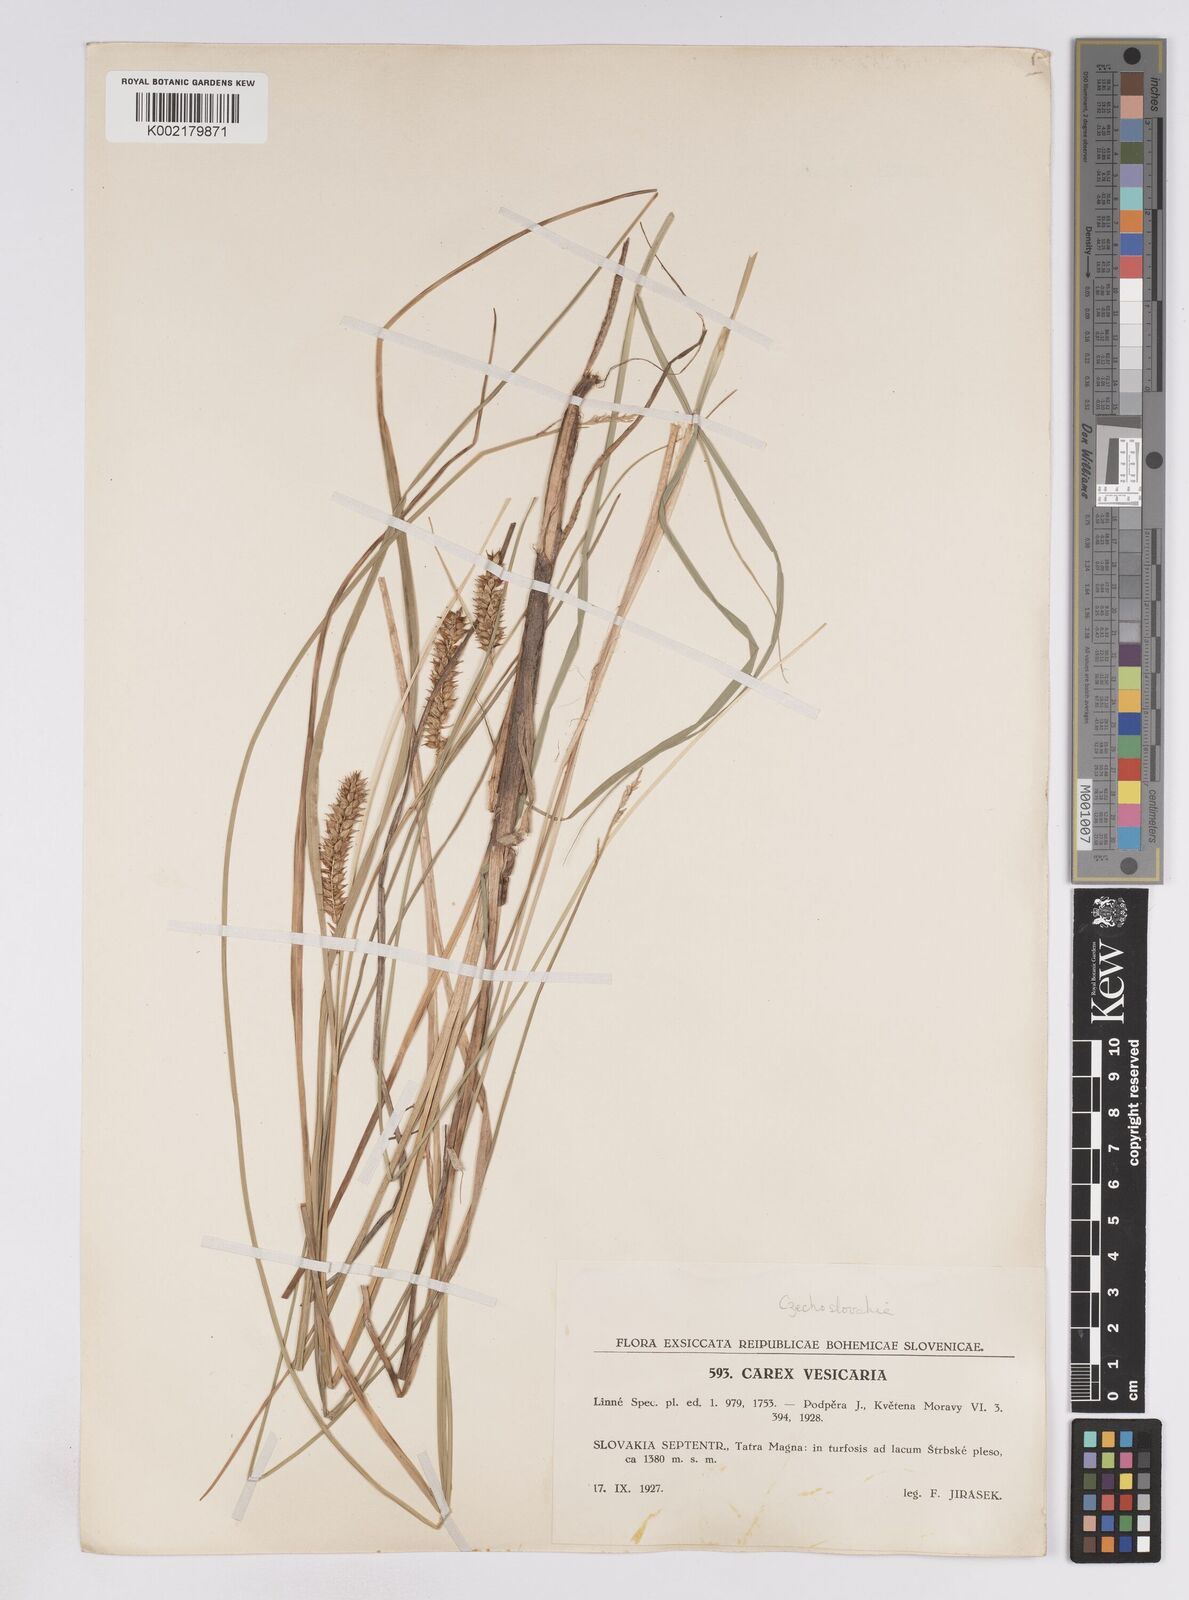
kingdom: Plantae
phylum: Tracheophyta
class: Liliopsida
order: Poales
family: Cyperaceae
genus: Carex
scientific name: Carex rostrata
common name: Bottle sedge
